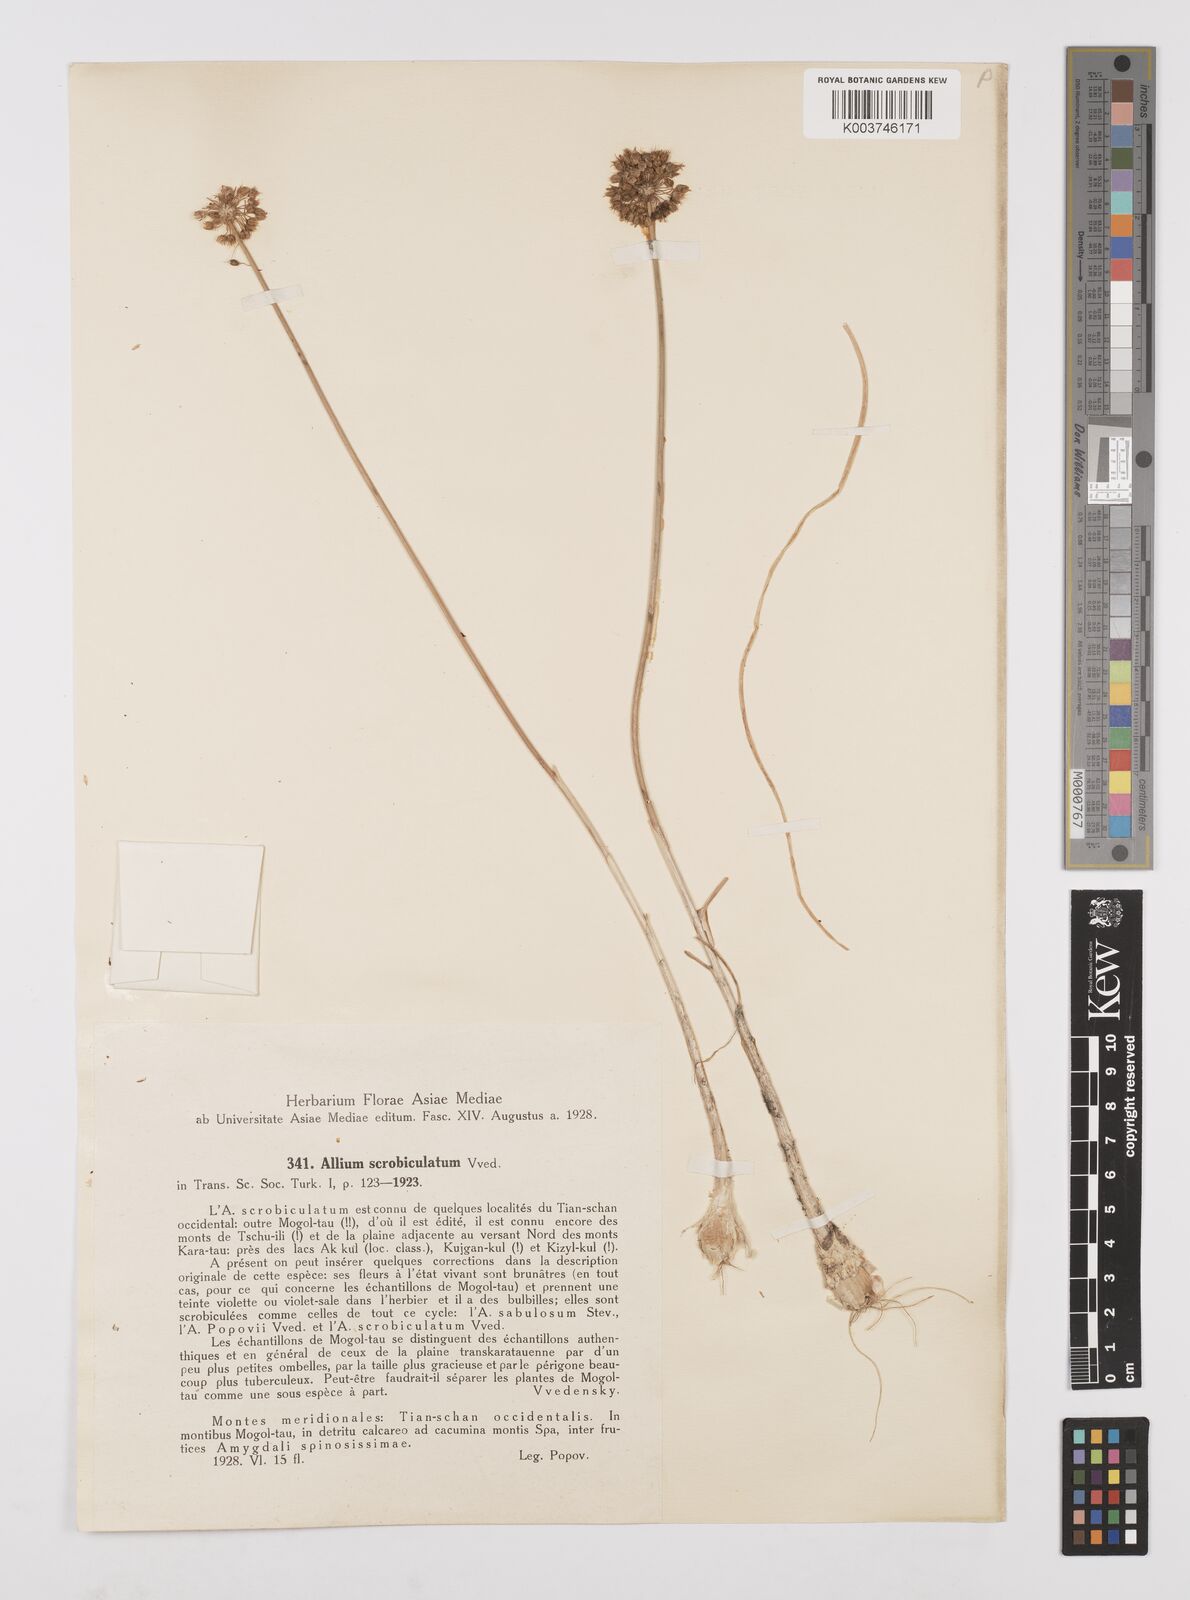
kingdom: Plantae
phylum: Tracheophyta
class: Liliopsida
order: Asparagales
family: Amaryllidaceae
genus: Allium
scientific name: Allium scrobiculatum
